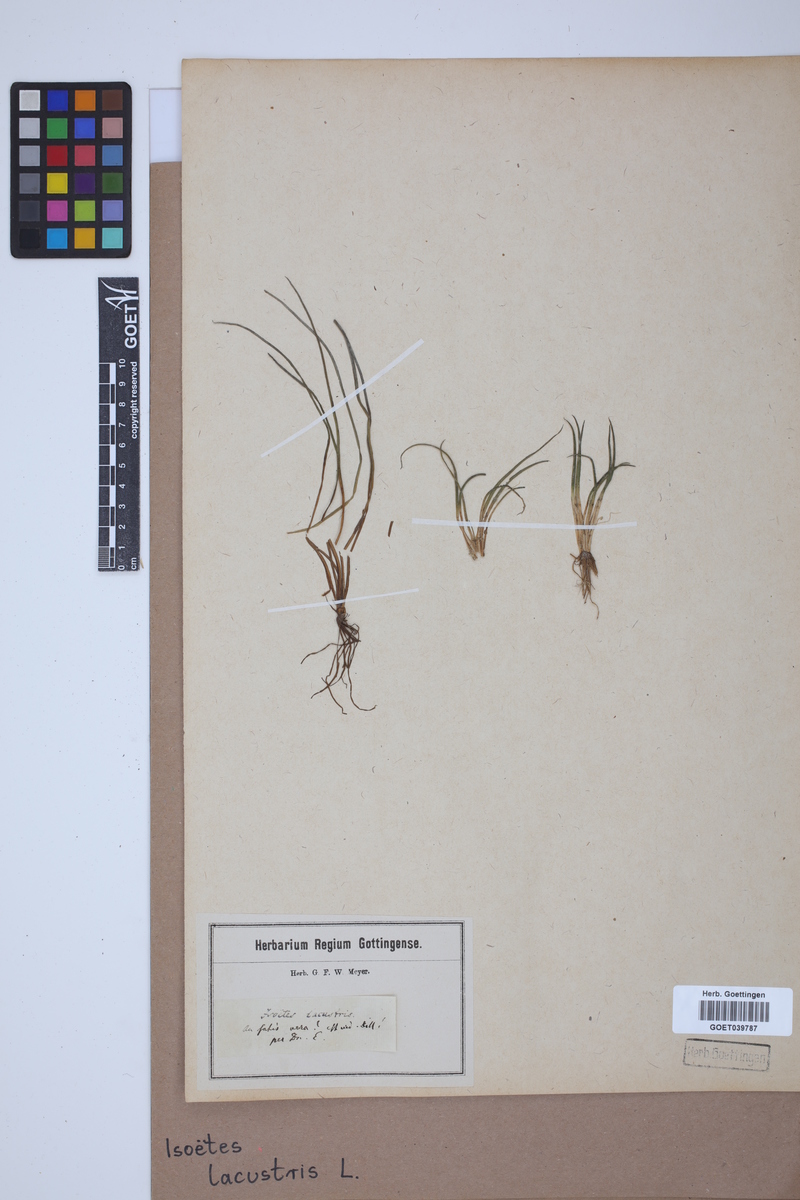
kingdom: Plantae
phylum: Tracheophyta
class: Lycopodiopsida
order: Isoetales
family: Isoetaceae
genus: Isoetes
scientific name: Isoetes lacustris
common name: Common quillwort
